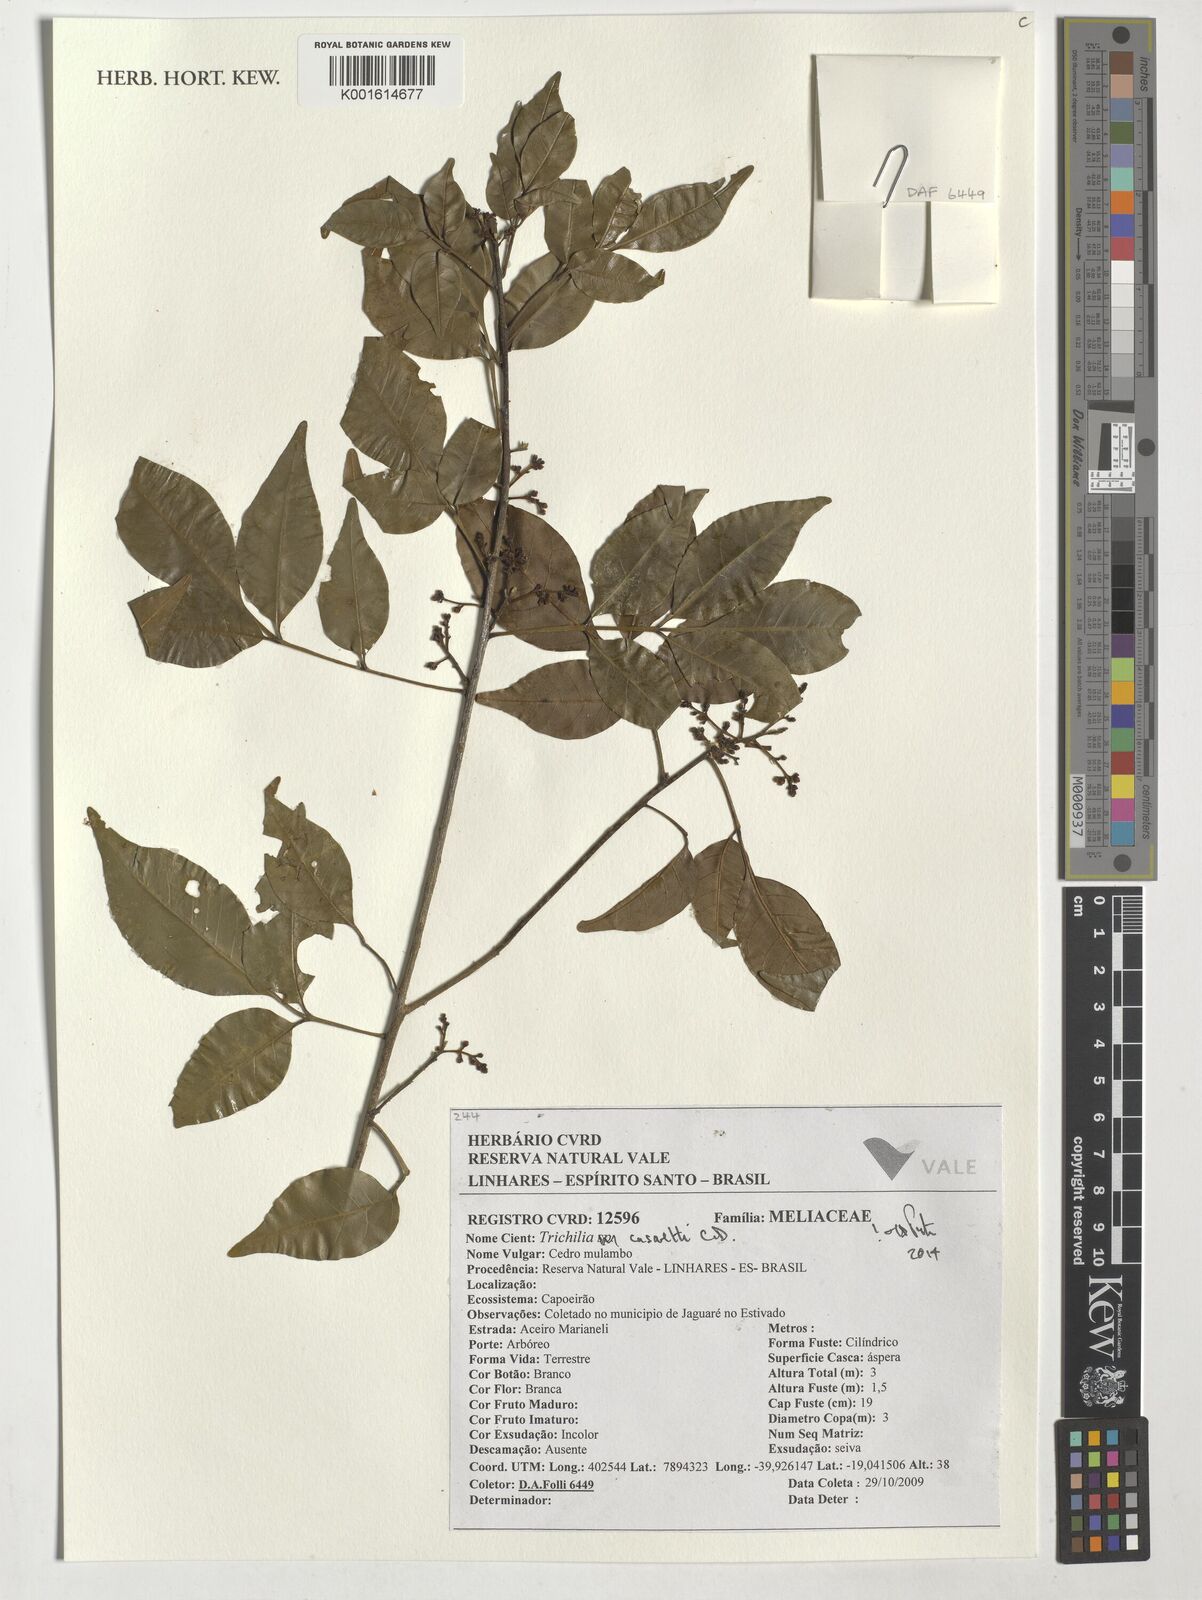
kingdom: Plantae
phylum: Tracheophyta
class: Magnoliopsida
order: Sapindales
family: Meliaceae
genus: Trichilia
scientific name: Trichilia casarettoi
